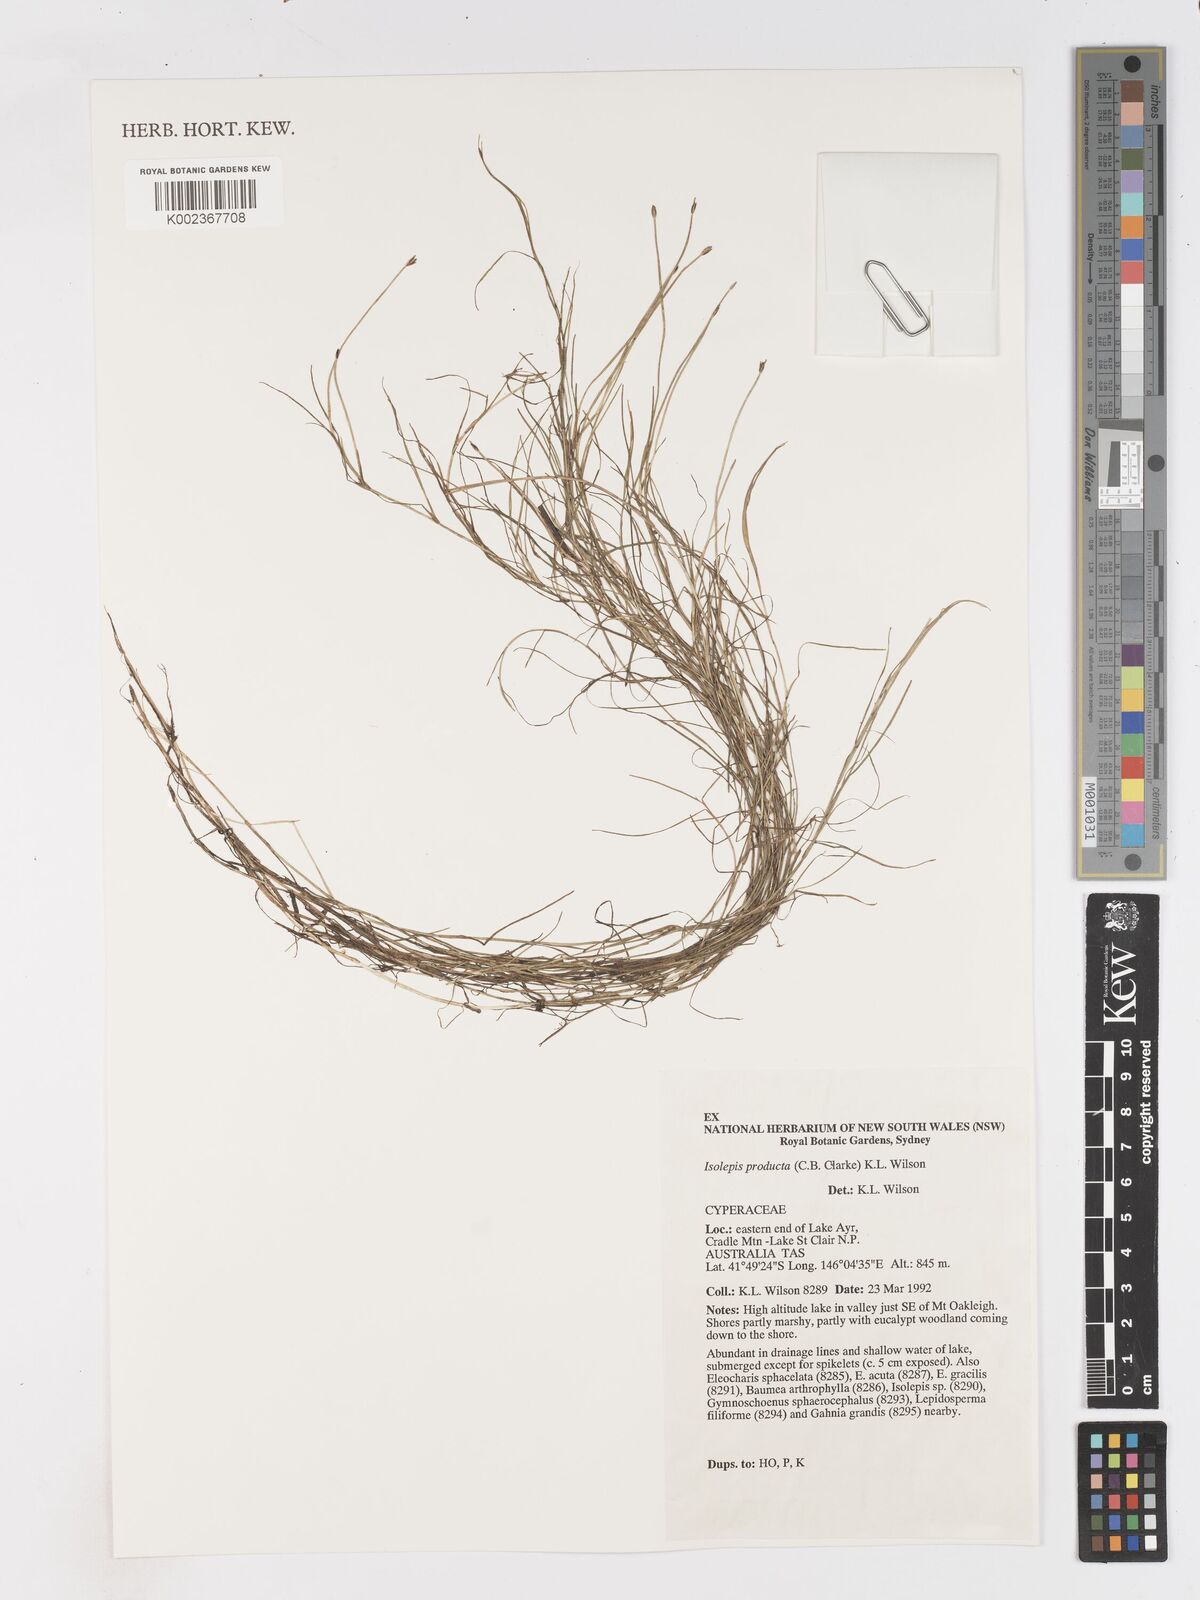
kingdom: Plantae
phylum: Tracheophyta
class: Liliopsida
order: Poales
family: Cyperaceae
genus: Isolepis
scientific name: Isolepis producta
